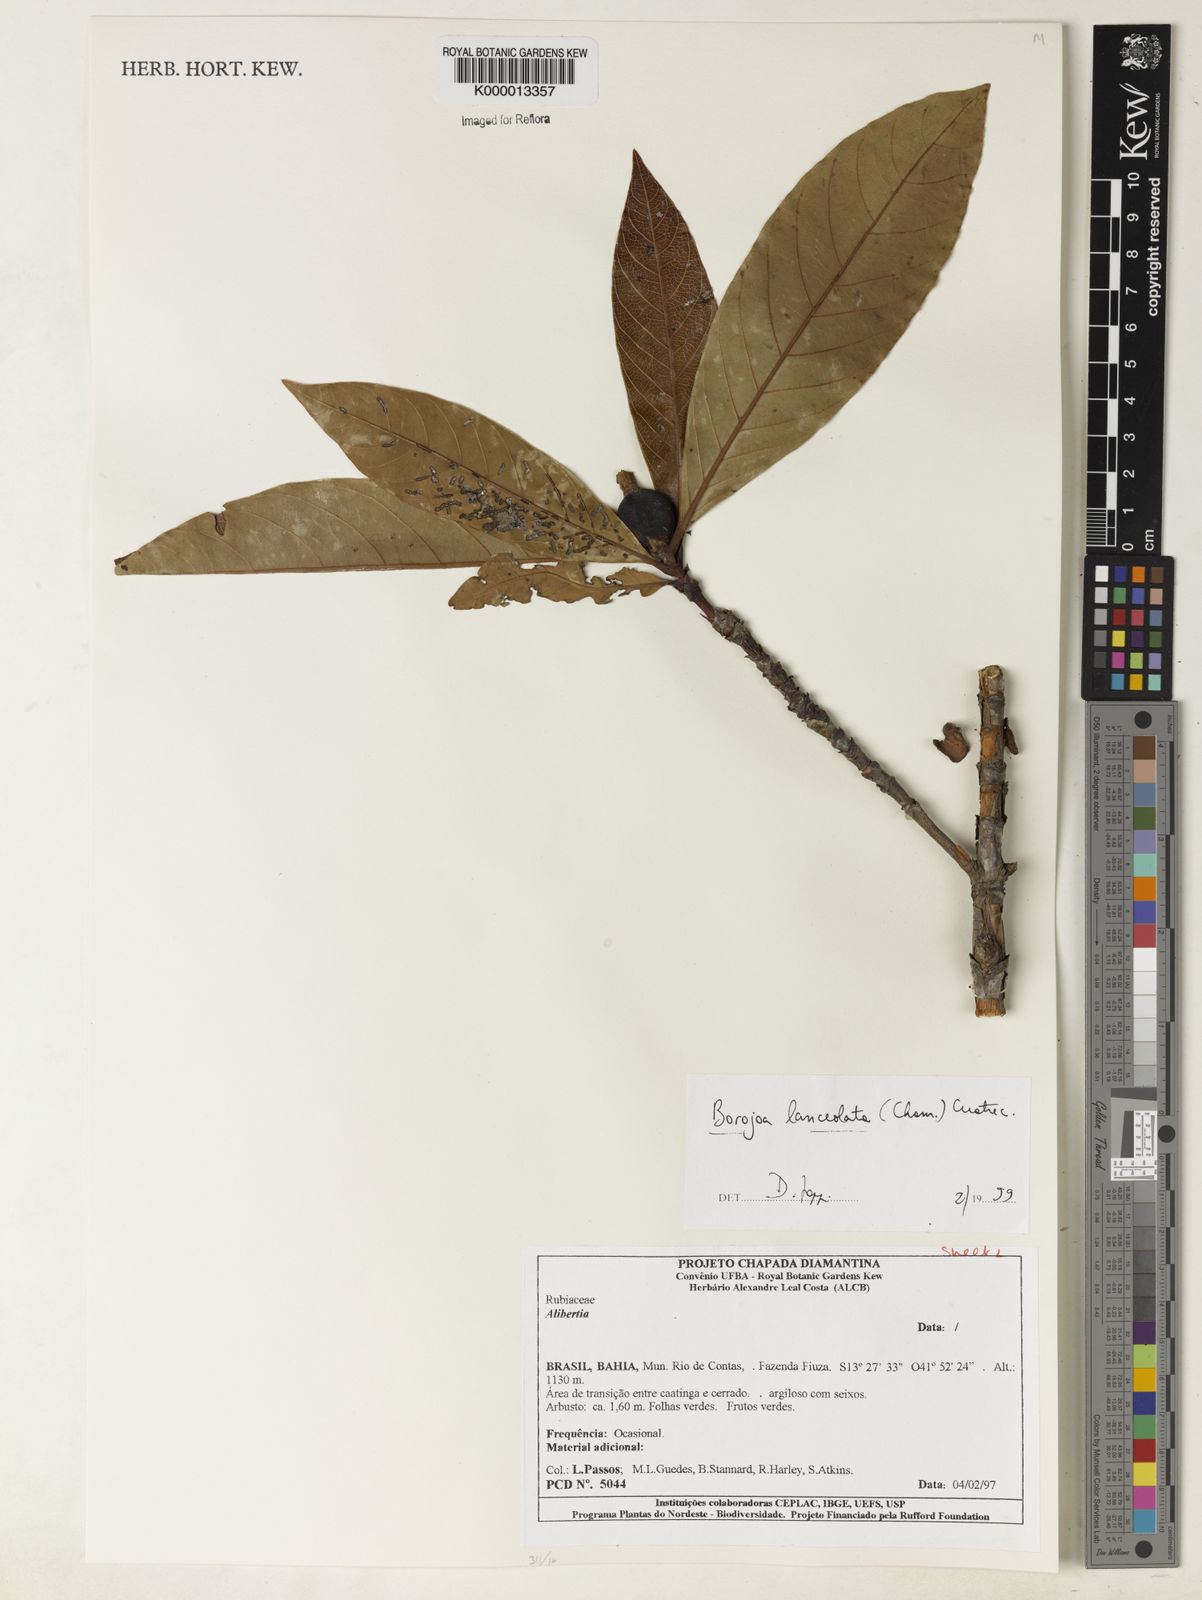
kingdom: Plantae
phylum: Tracheophyta
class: Magnoliopsida
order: Gentianales
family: Rubiaceae
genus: Alibertia
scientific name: Alibertia edulis
